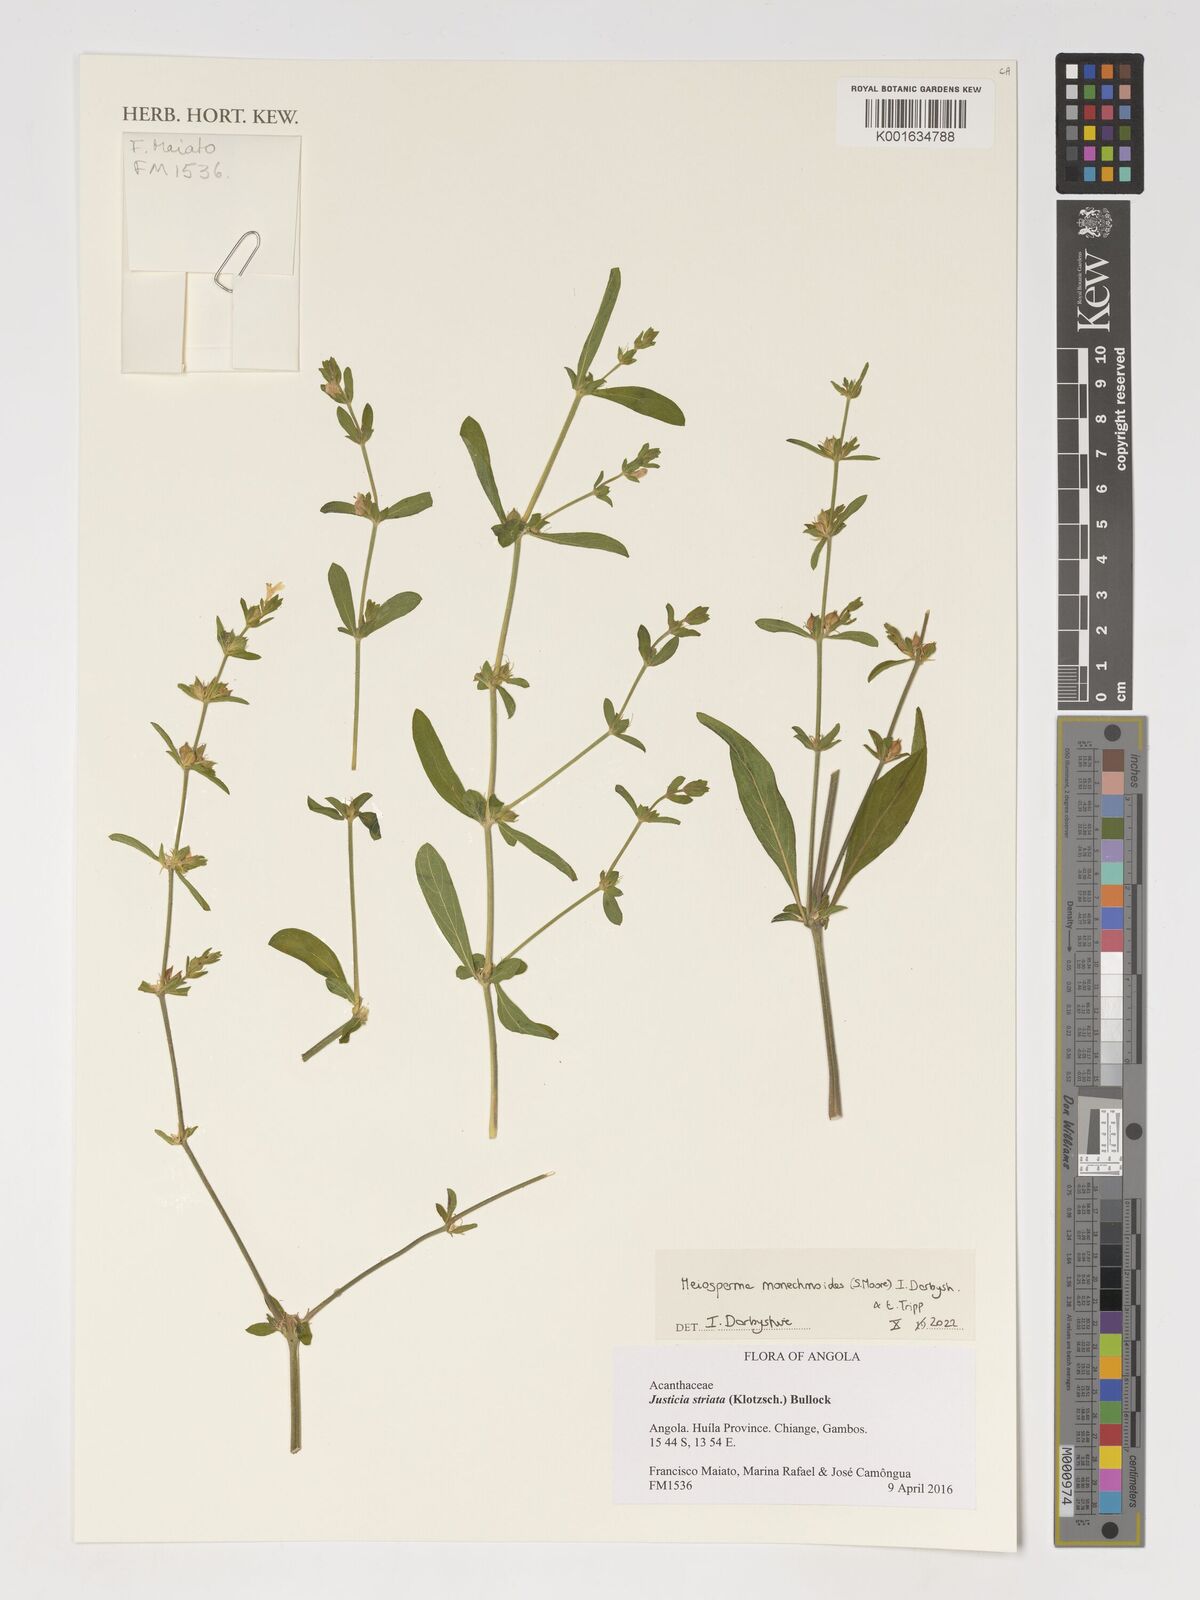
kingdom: Plantae
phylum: Tracheophyta
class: Magnoliopsida
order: Lamiales
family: Acanthaceae
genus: Monechma
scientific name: Monechma
